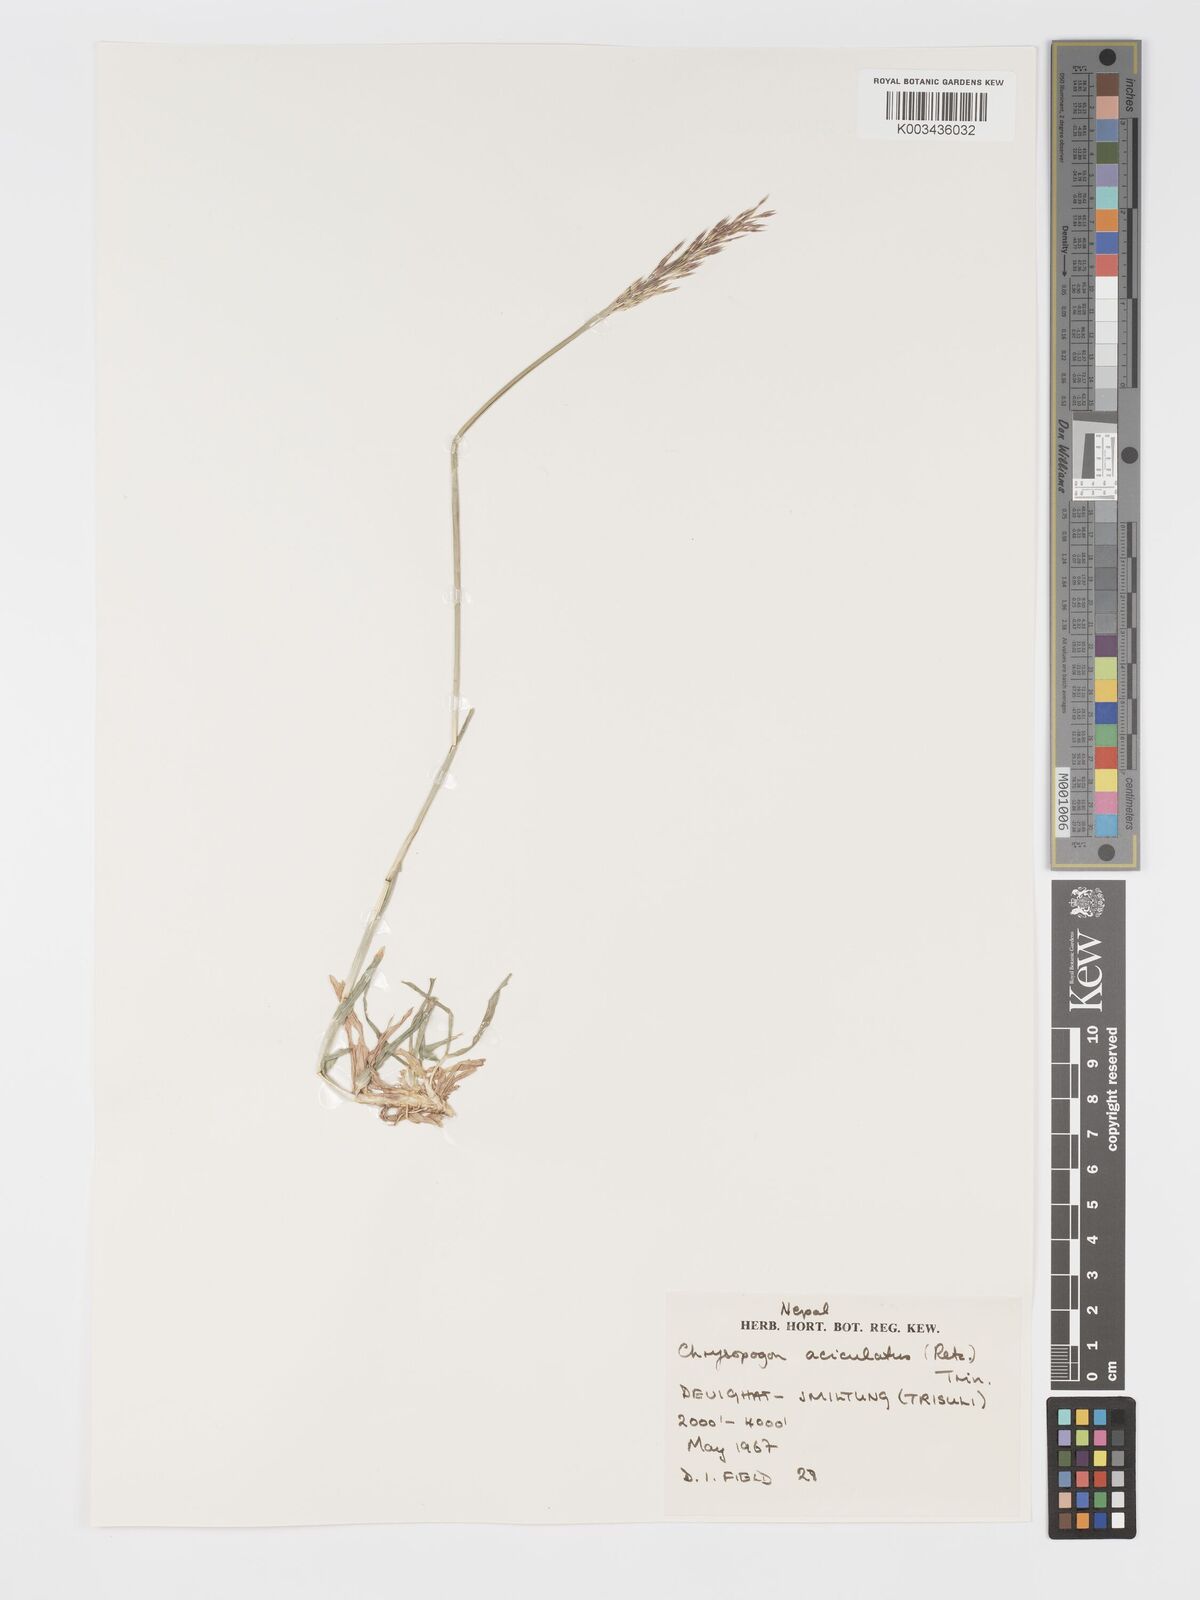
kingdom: Plantae
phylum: Tracheophyta
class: Liliopsida
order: Poales
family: Poaceae
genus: Chrysopogon
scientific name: Chrysopogon aciculatus
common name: Pilipiliula
